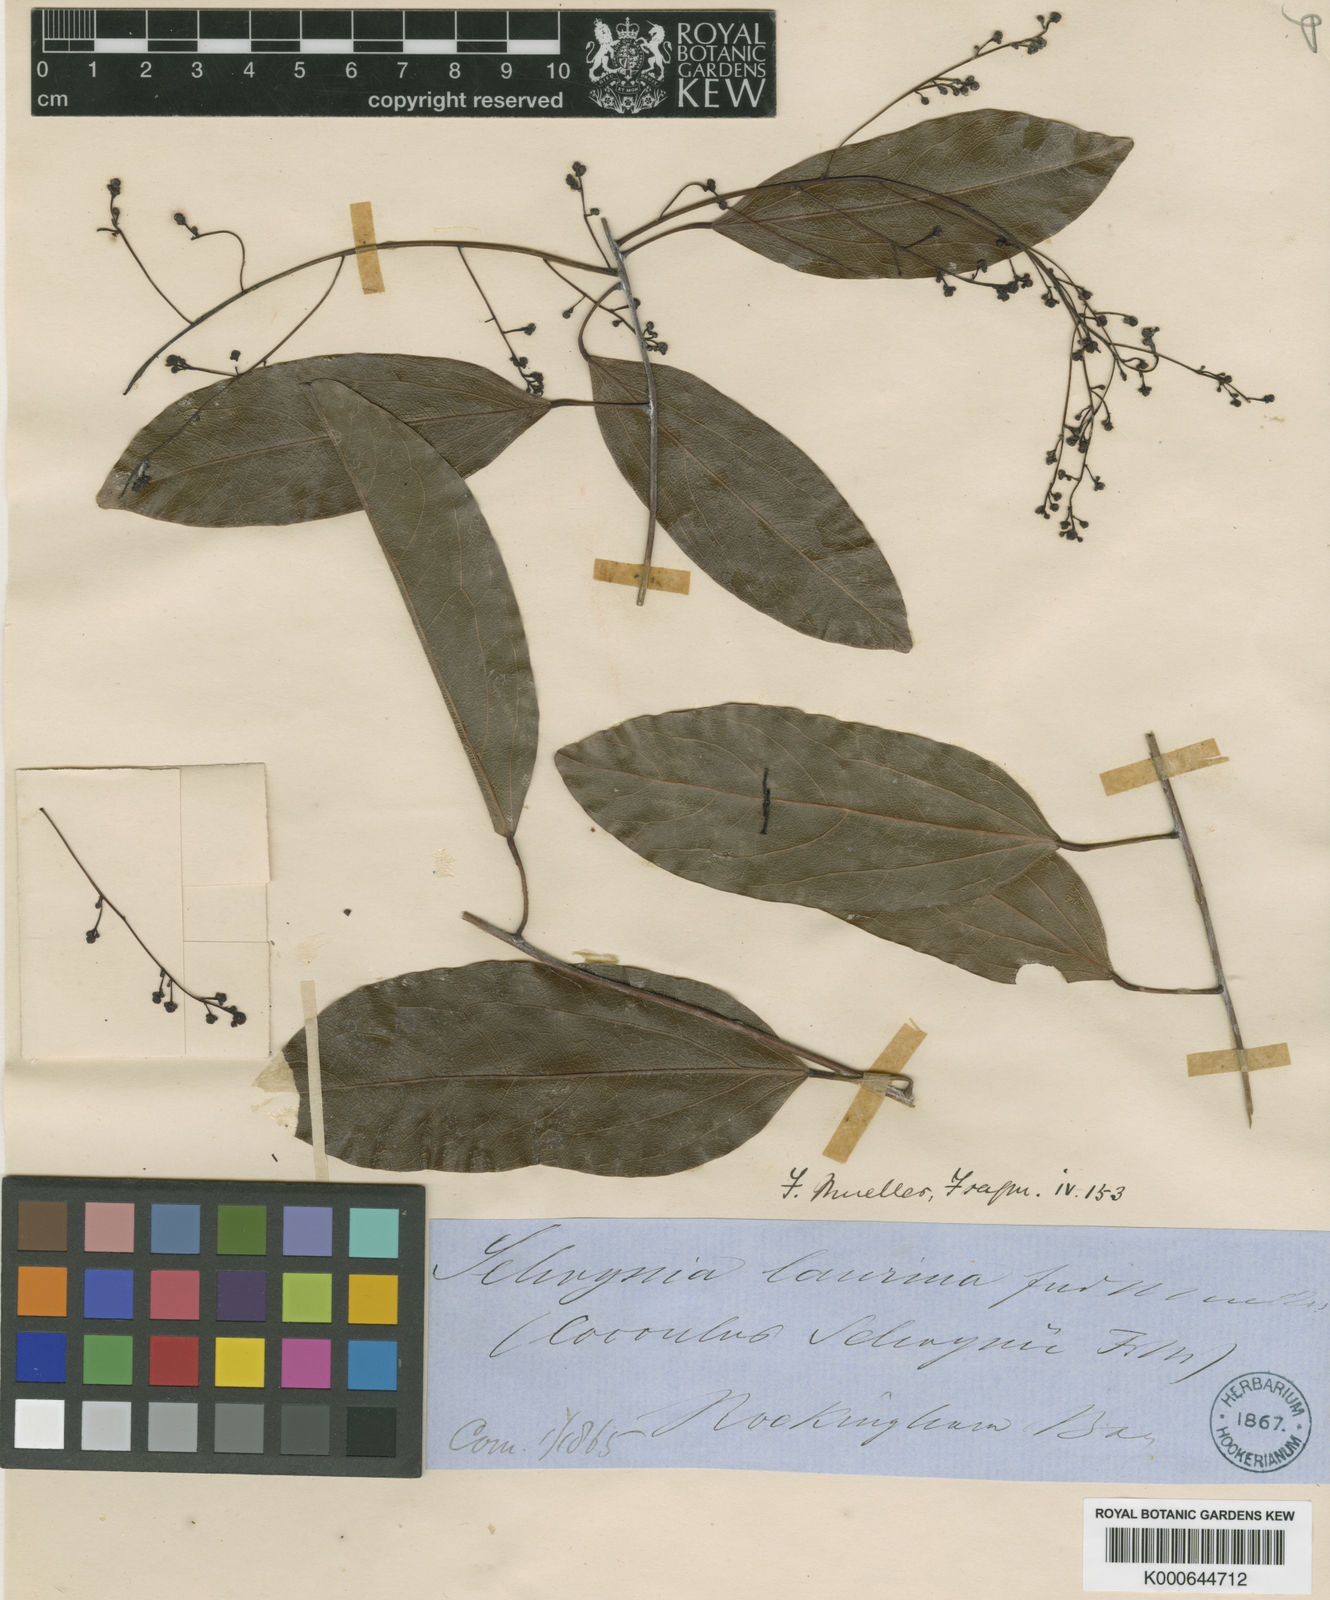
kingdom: Plantae
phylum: Tracheophyta
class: Magnoliopsida
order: Ranunculales
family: Menispermaceae
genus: Hypserpa
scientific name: Hypserpa laurina
